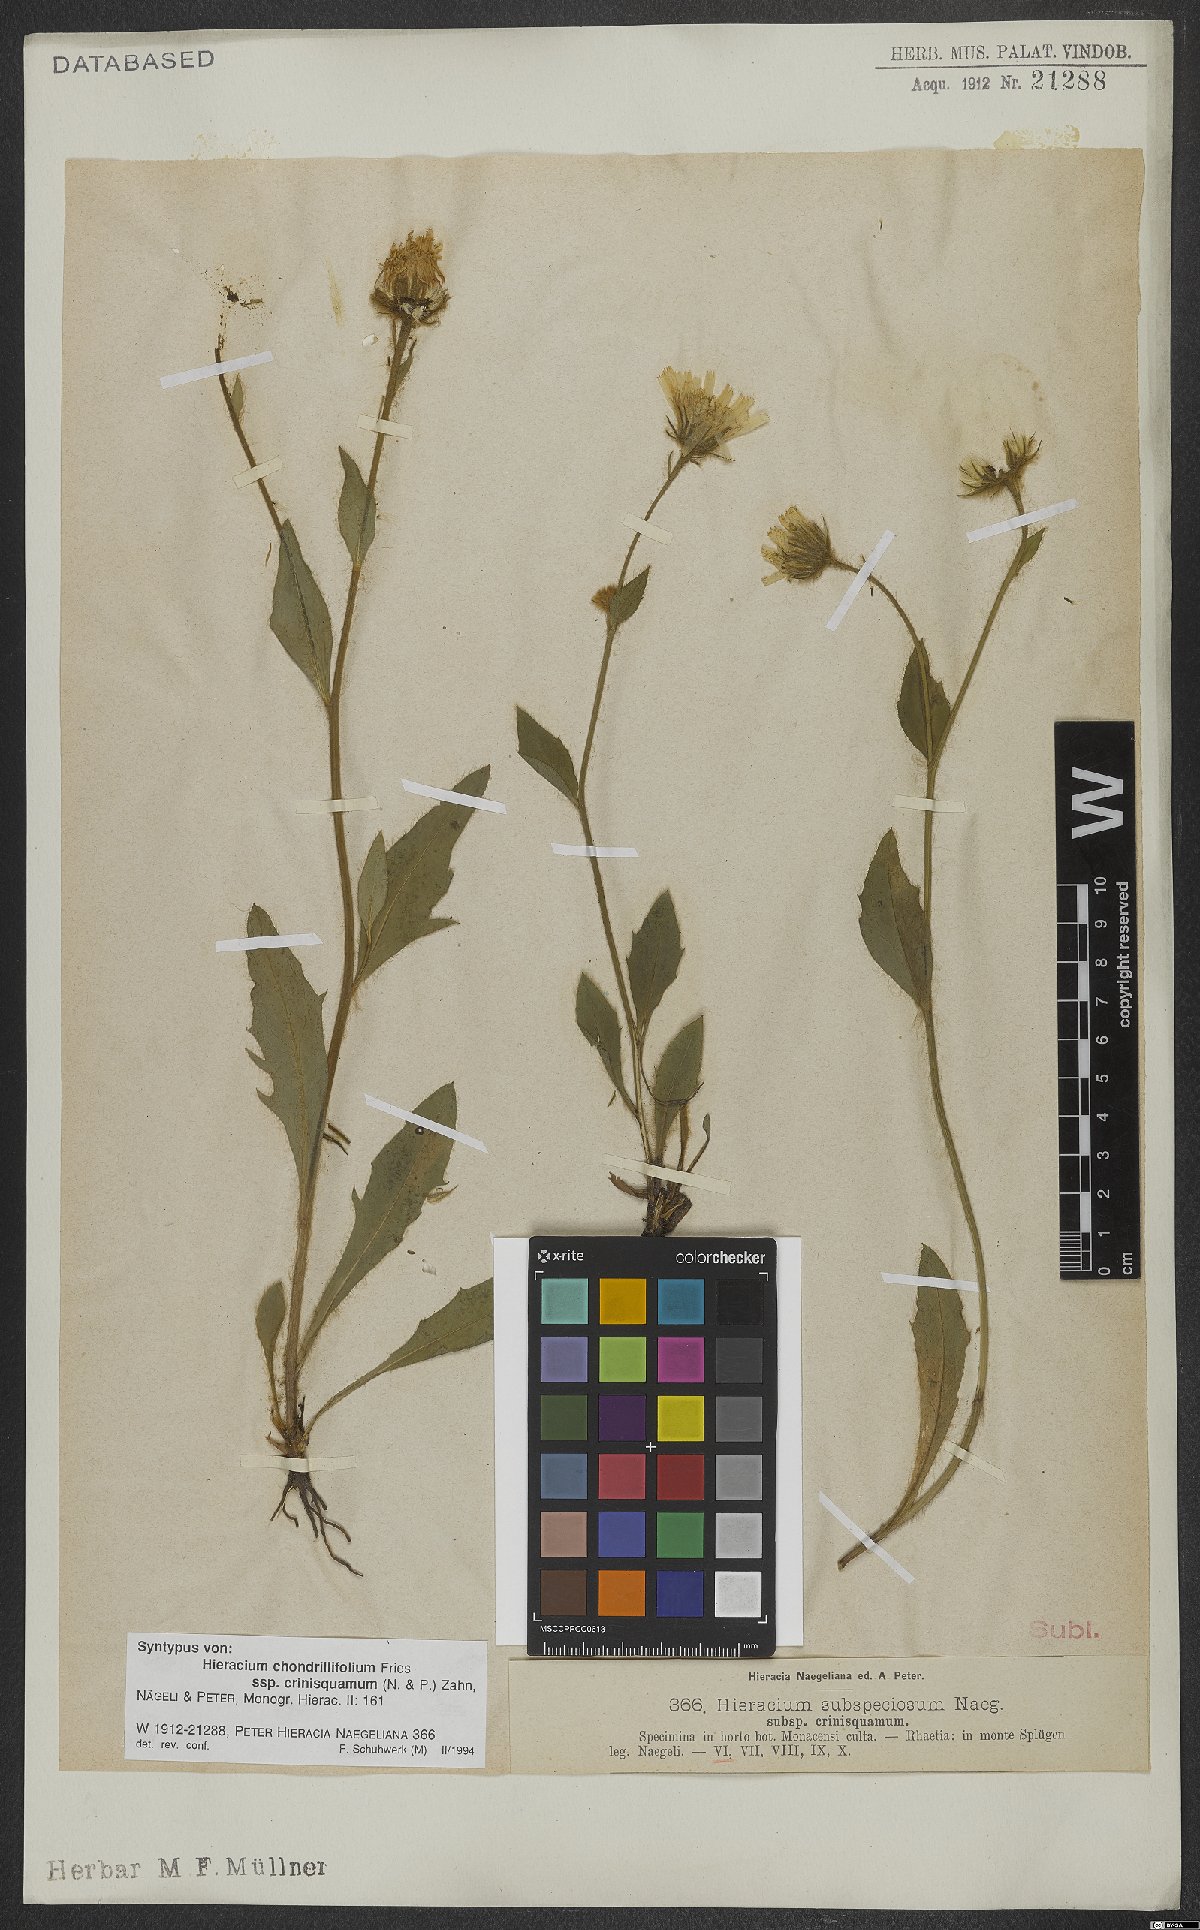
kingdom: Plantae
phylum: Tracheophyta
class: Magnoliopsida
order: Asterales
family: Asteraceae
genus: Hieracium
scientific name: Hieracium chondrillifolium
